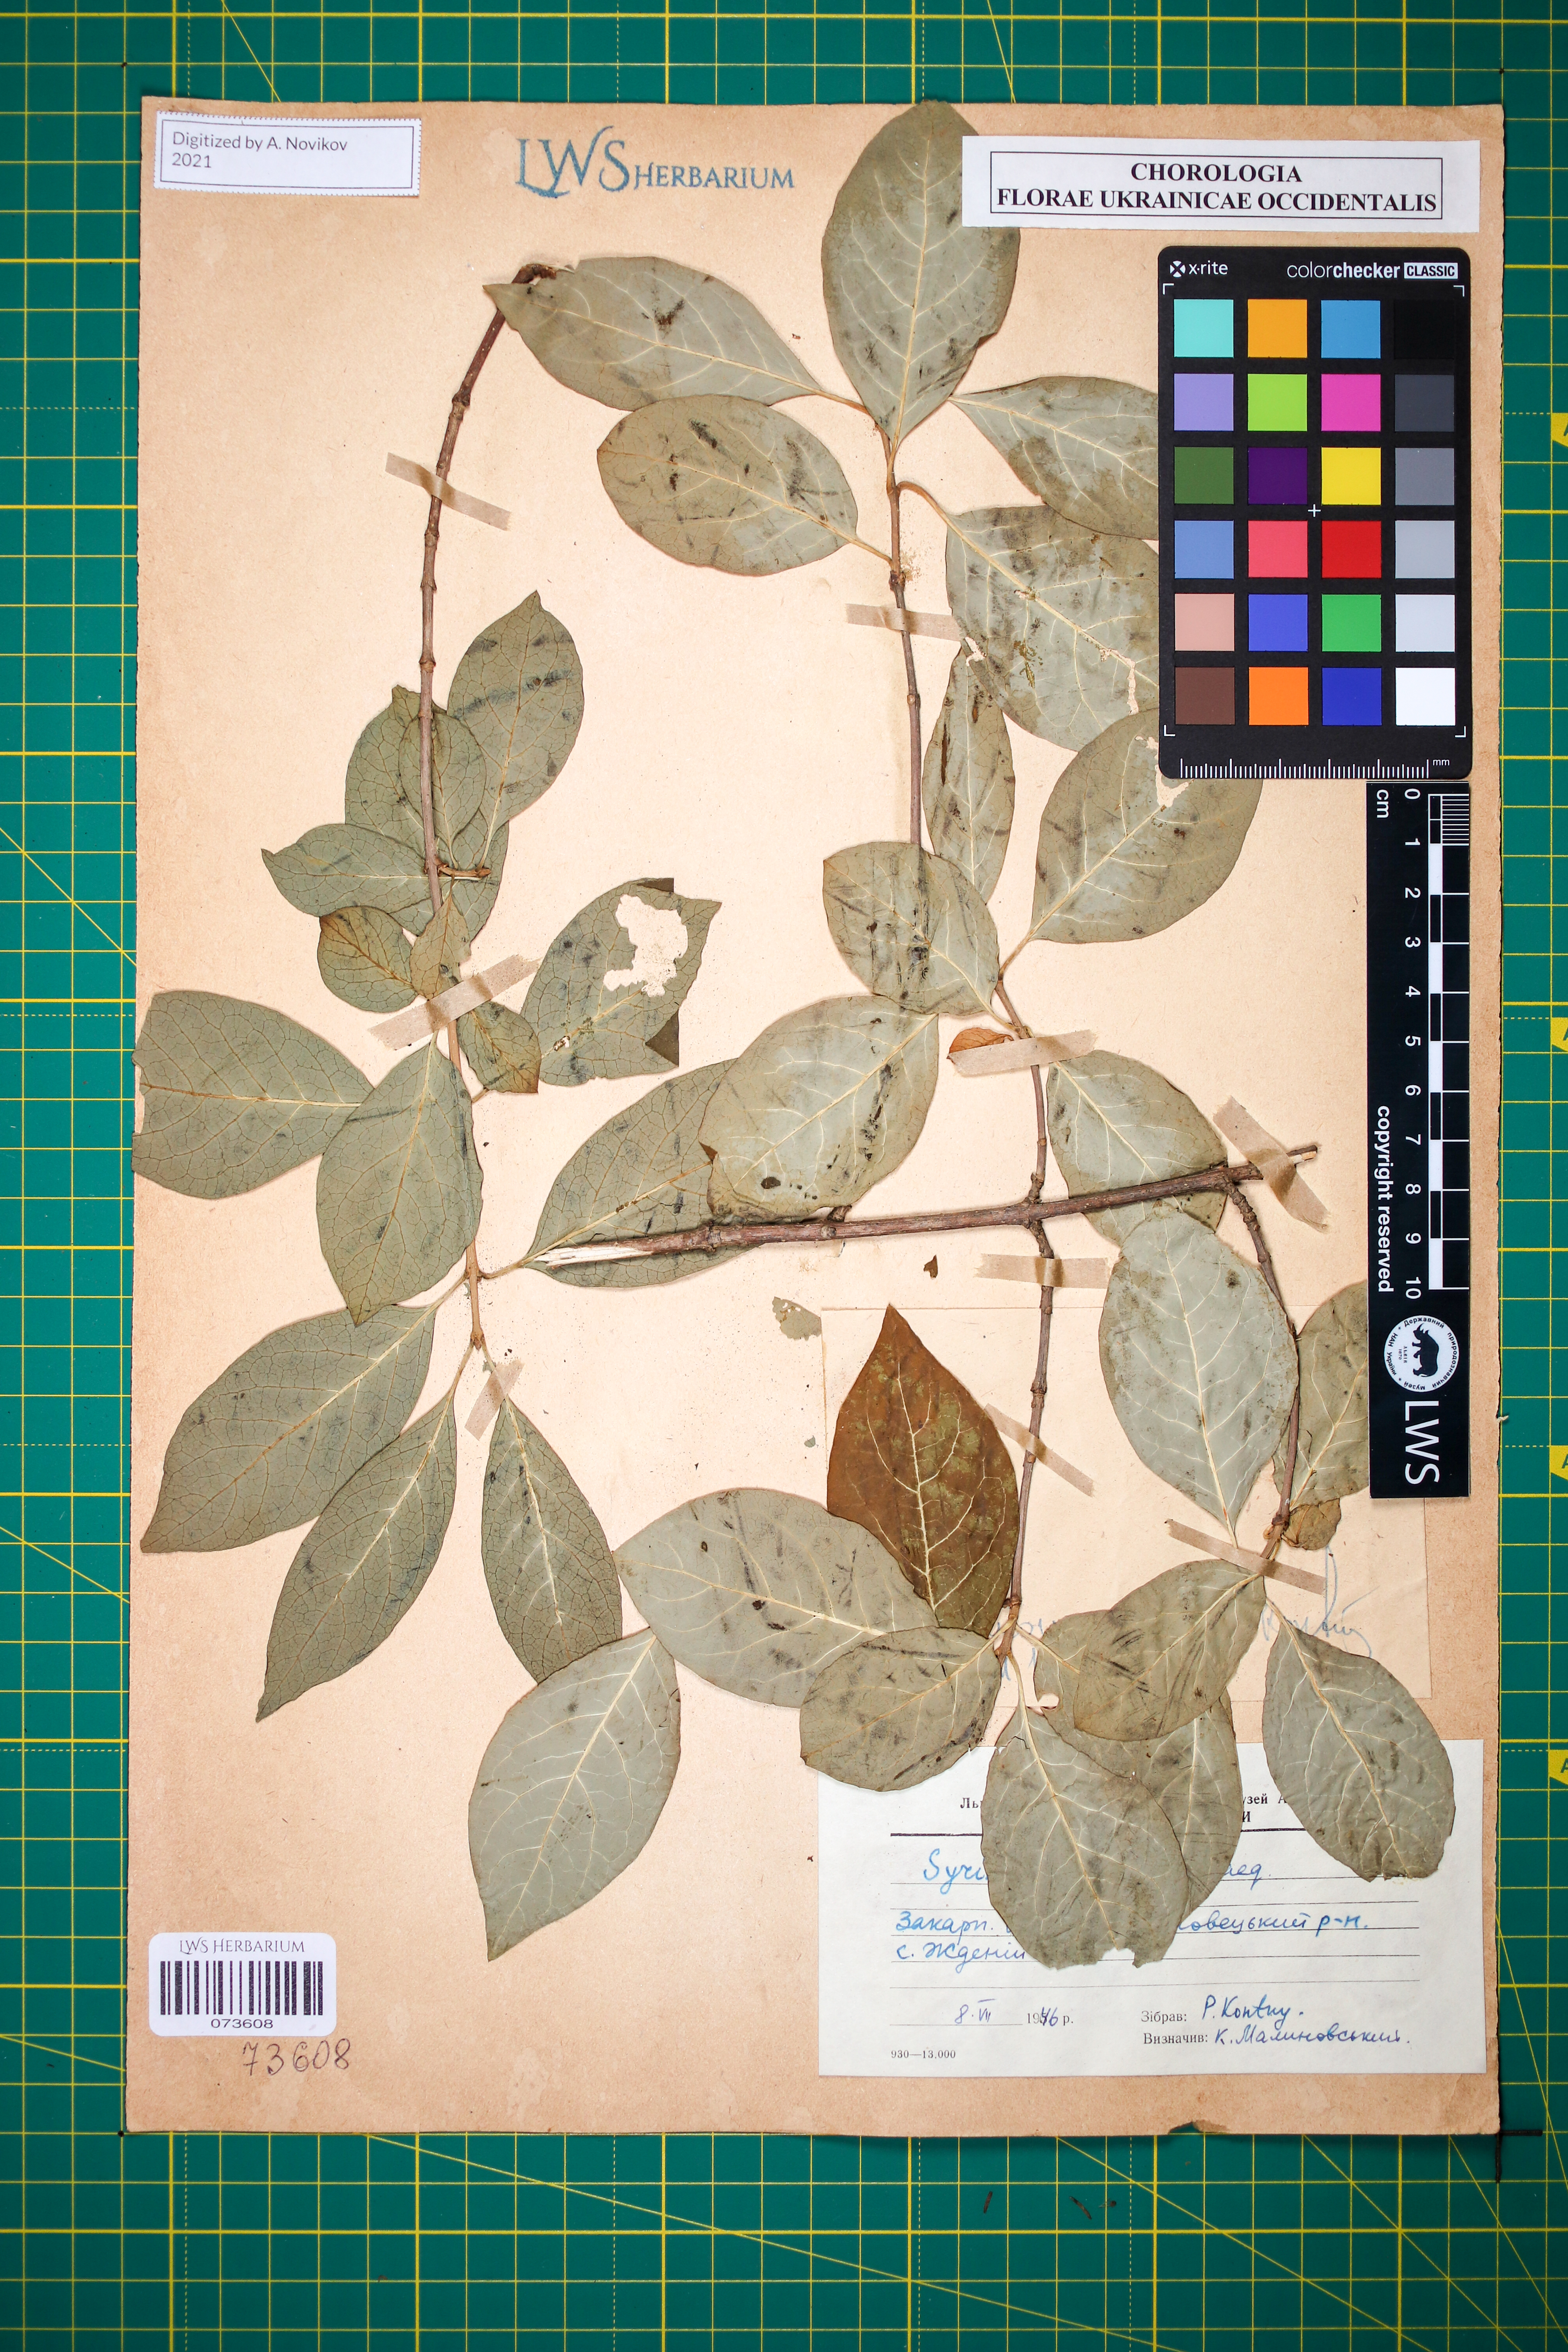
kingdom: Plantae
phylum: Tracheophyta
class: Magnoliopsida
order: Lamiales
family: Oleaceae
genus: Syringa
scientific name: Syringa josikaea
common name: Hungarian lilac
